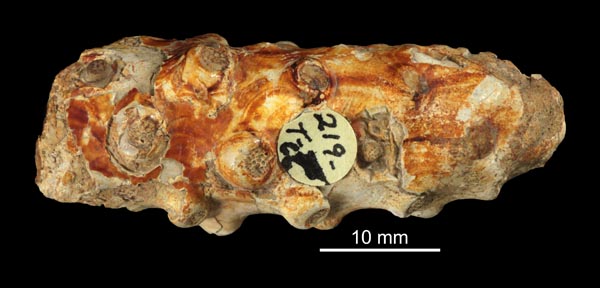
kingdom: Animalia
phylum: Arthropoda
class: Malacostraca
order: Decapoda
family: Erymidae
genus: Enoploclytia
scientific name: Enoploclytia
